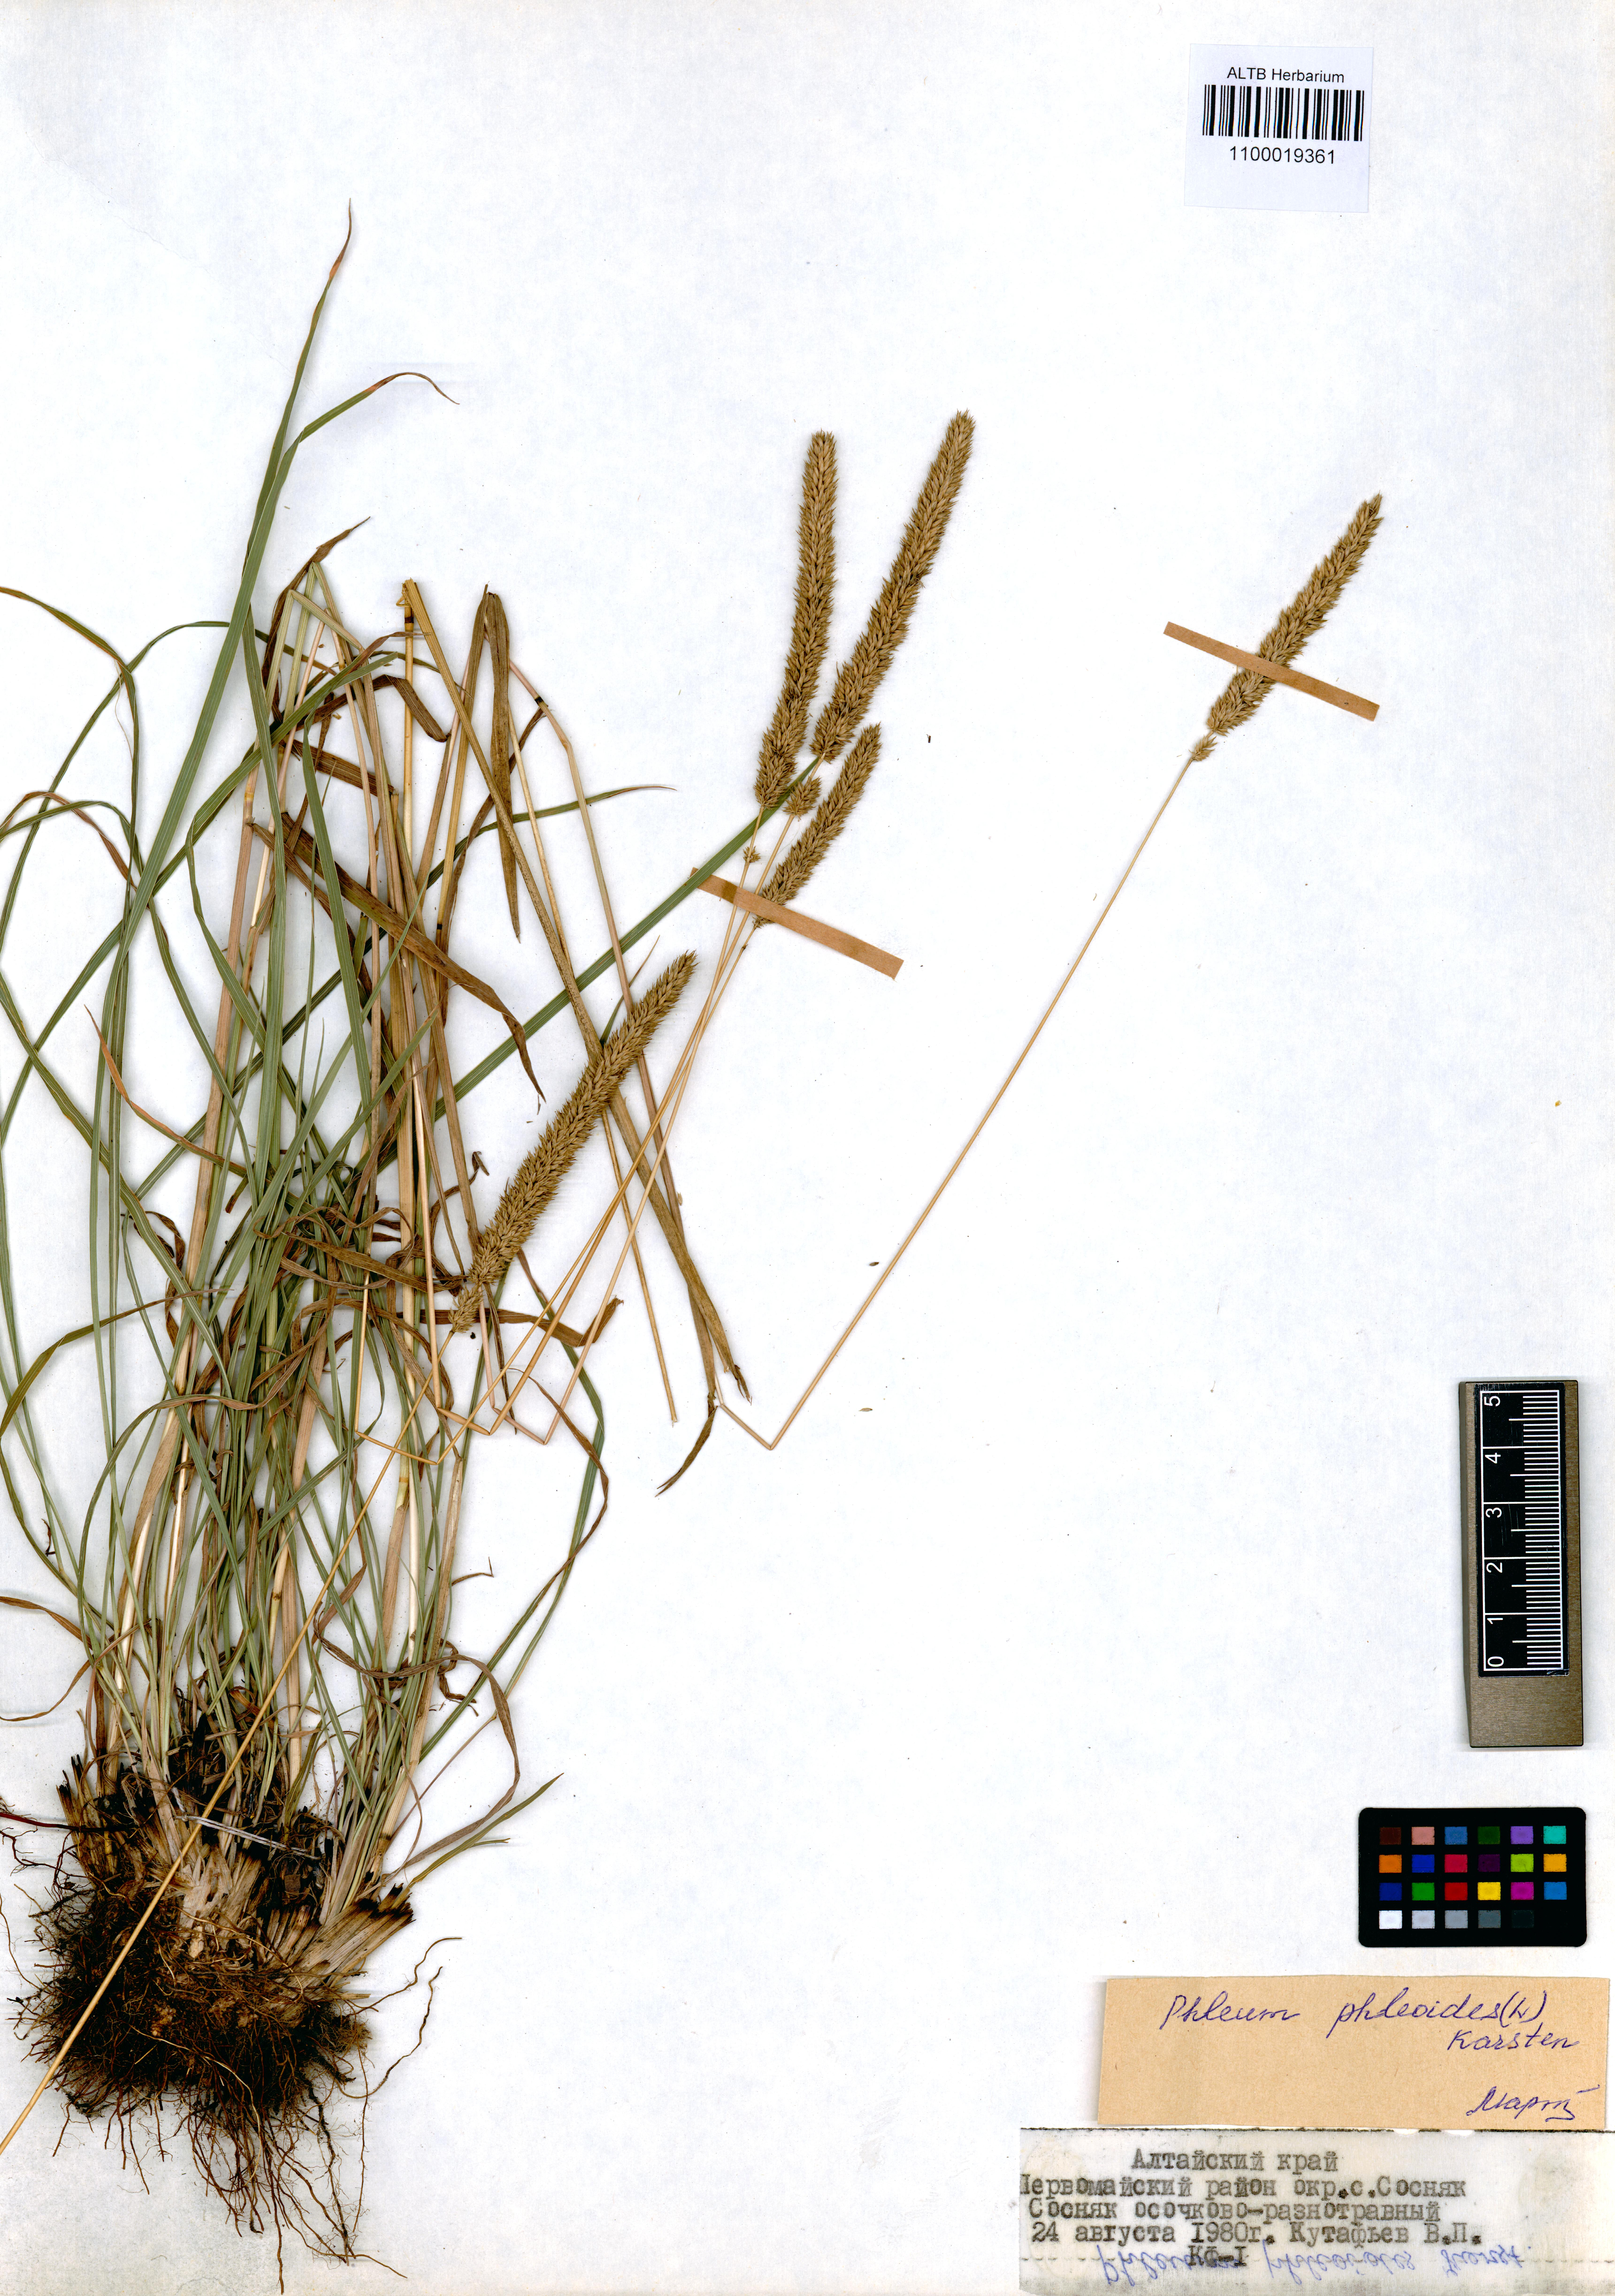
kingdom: Plantae
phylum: Tracheophyta
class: Liliopsida
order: Poales
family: Poaceae
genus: Phleum
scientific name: Phleum phleoides
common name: Purple-stem cat's-tail
